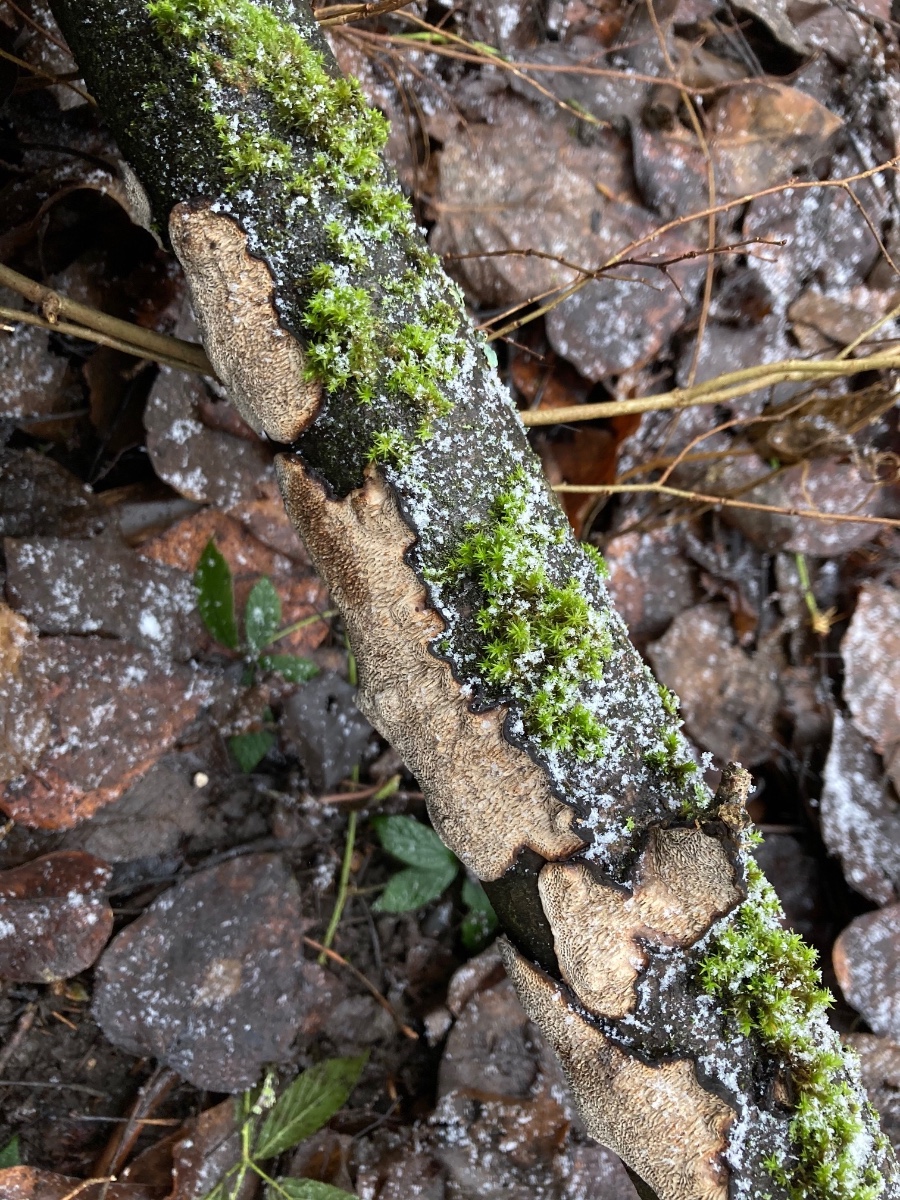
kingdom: Fungi
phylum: Basidiomycota
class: Agaricomycetes
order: Polyporales
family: Polyporaceae
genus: Podofomes
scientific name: Podofomes mollis
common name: blød begporesvamp
